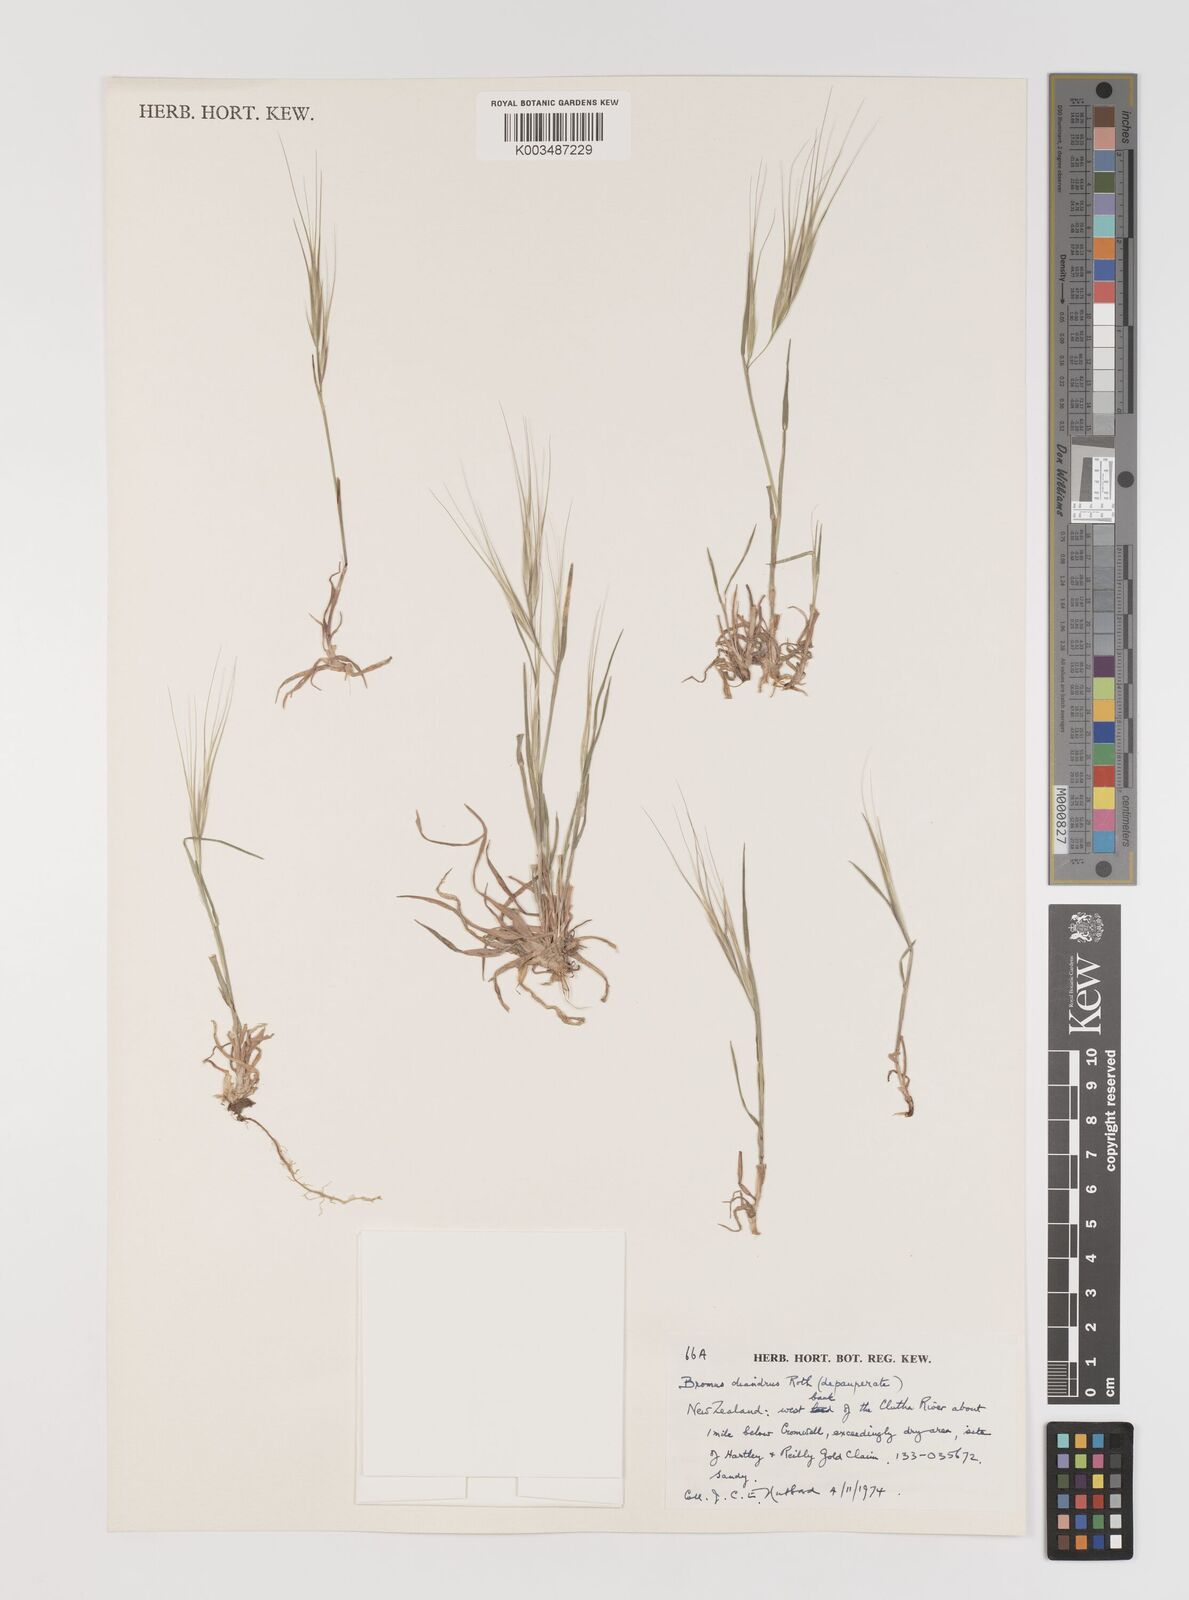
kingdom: Plantae
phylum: Tracheophyta
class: Liliopsida
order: Poales
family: Poaceae
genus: Bromus
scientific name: Bromus diandrus
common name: Ripgut brome
